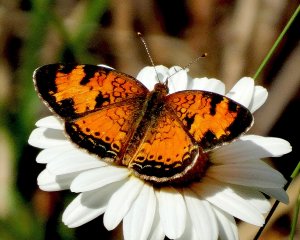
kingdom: Animalia
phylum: Arthropoda
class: Insecta
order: Lepidoptera
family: Nymphalidae
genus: Phyciodes
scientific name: Phyciodes tharos
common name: Northern Crescent
